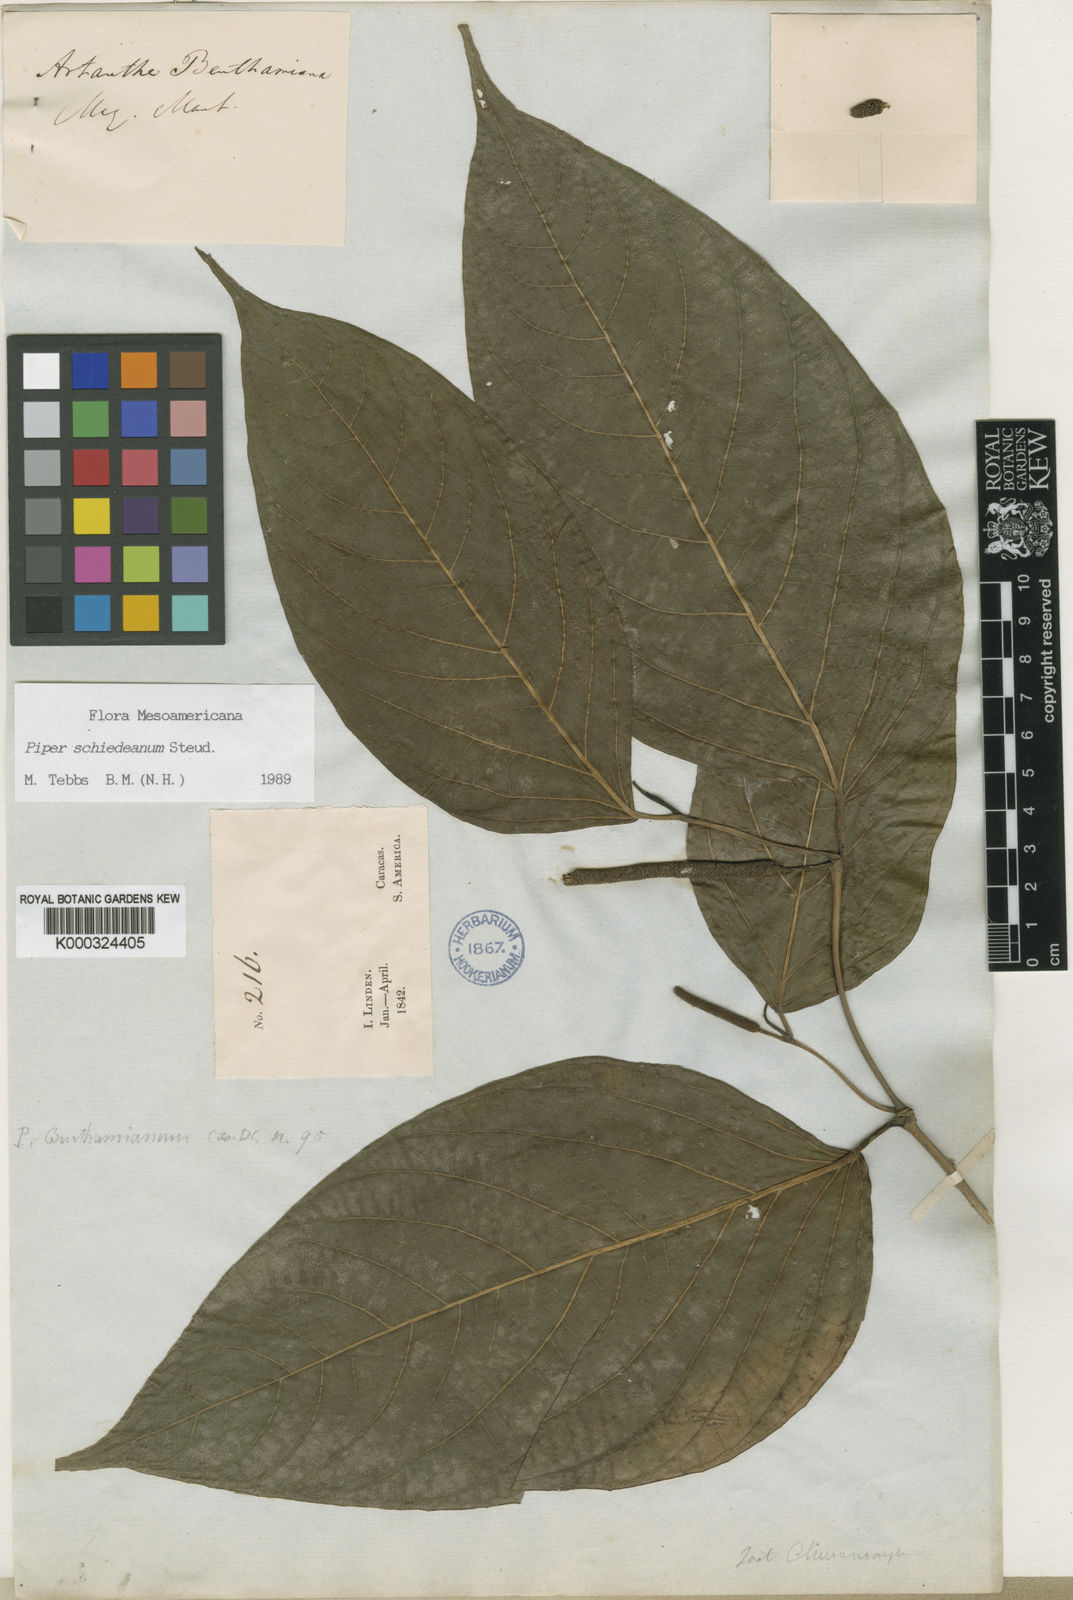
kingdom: Plantae
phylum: Tracheophyta
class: Magnoliopsida
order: Piperales
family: Piperaceae
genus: Piper
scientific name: Piper schiedeanum
